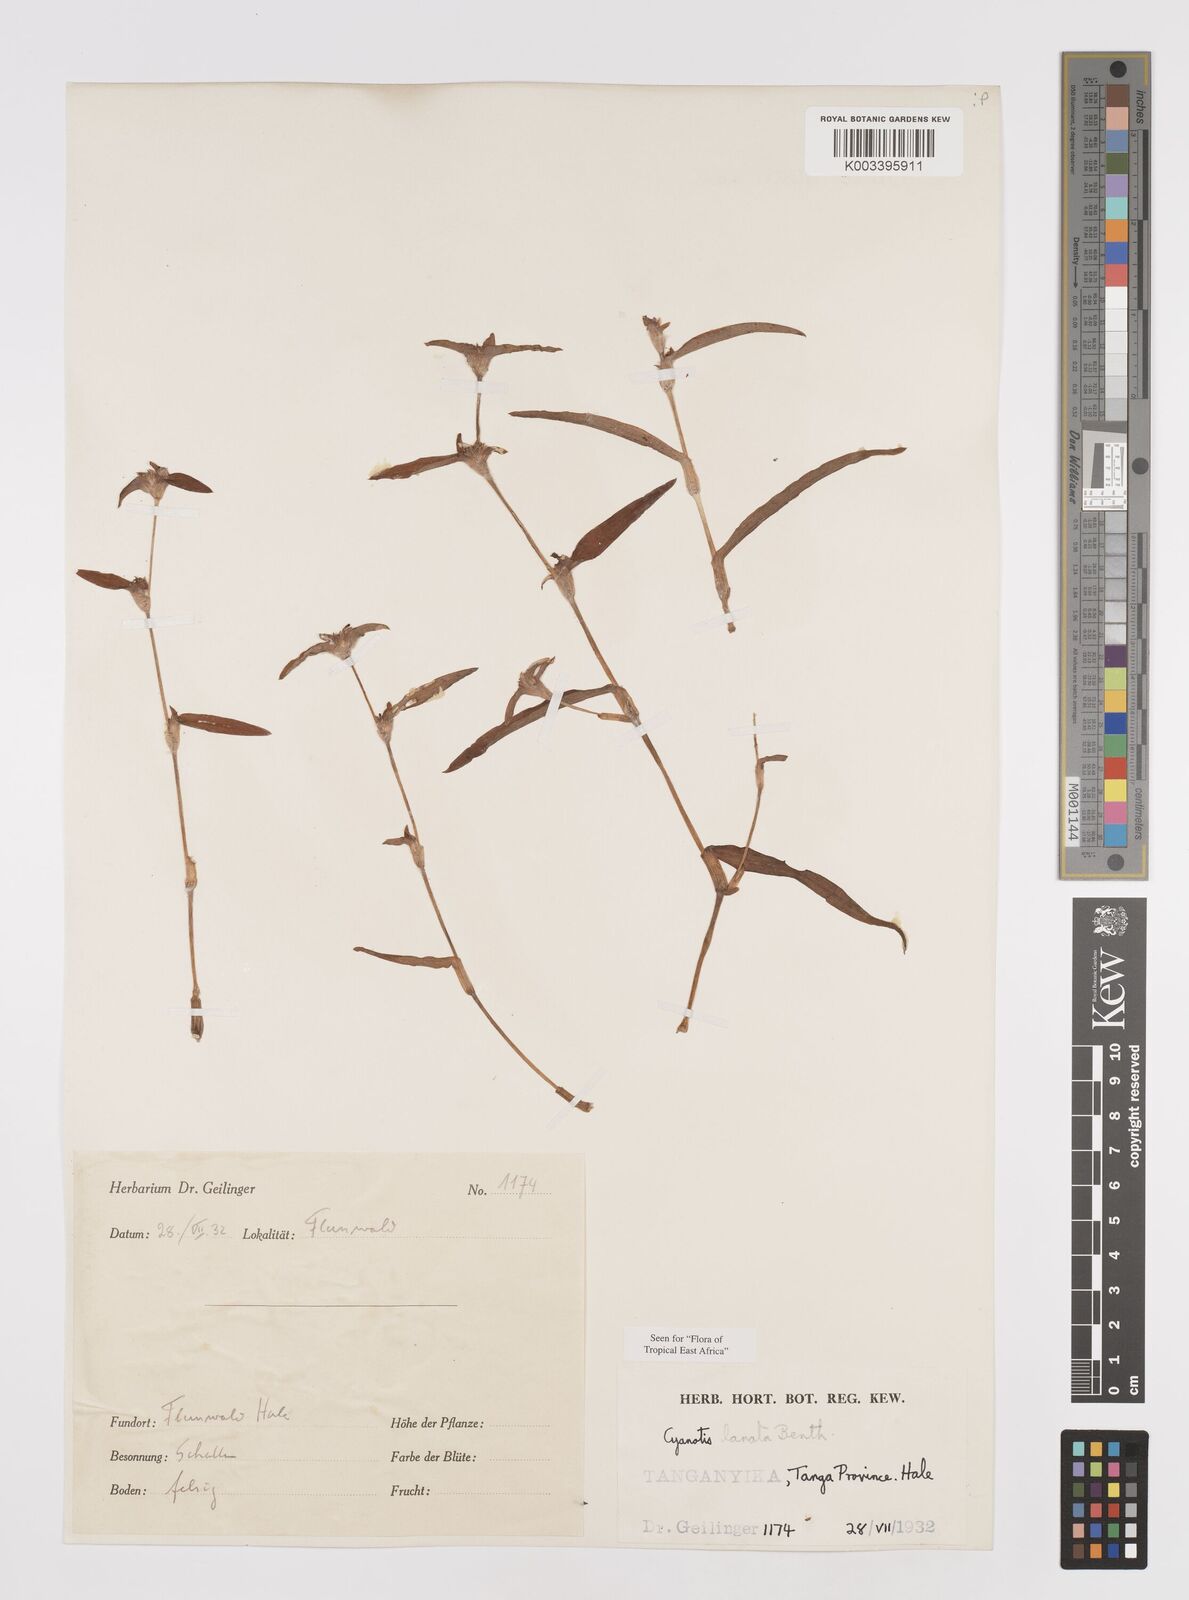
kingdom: Plantae
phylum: Tracheophyta
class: Liliopsida
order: Commelinales
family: Commelinaceae
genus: Cyanotis
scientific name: Cyanotis lanata
